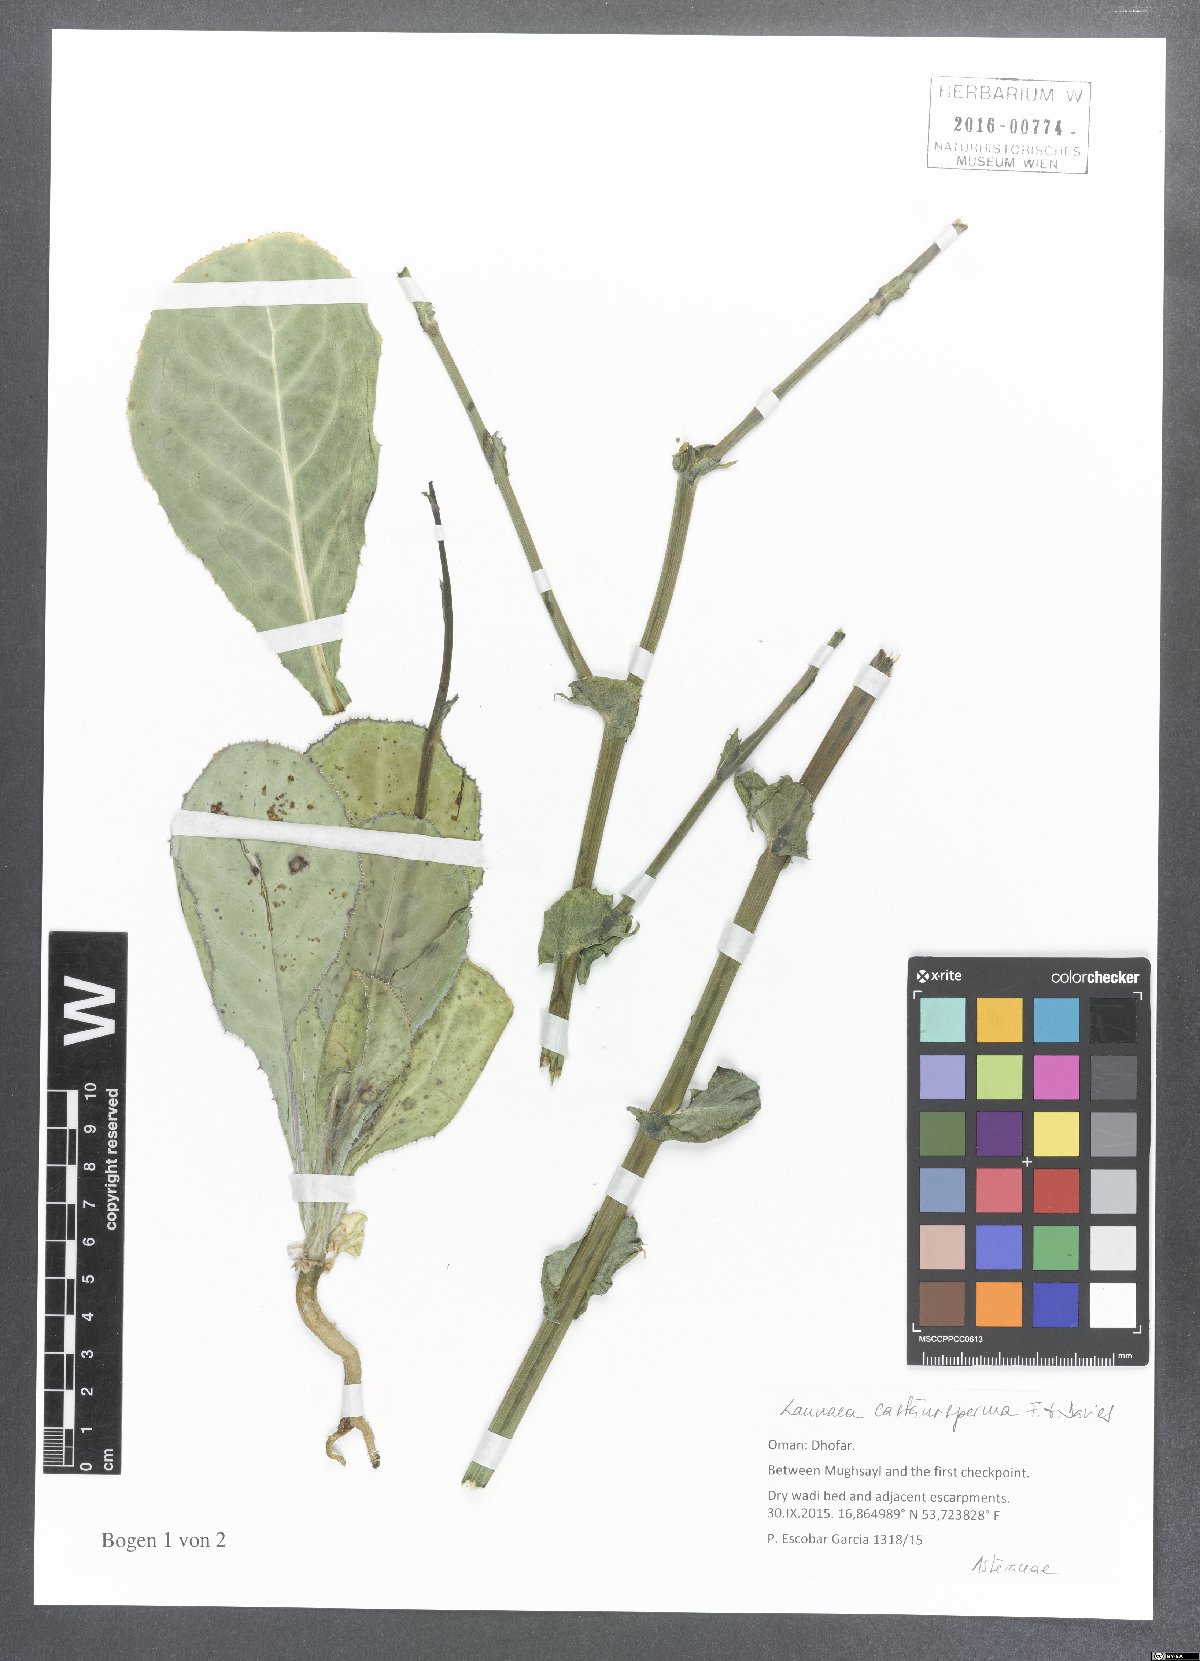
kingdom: Plantae
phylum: Tracheophyta
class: Magnoliopsida
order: Asterales
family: Asteraceae
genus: Launaea
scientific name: Launaea castanosperma
